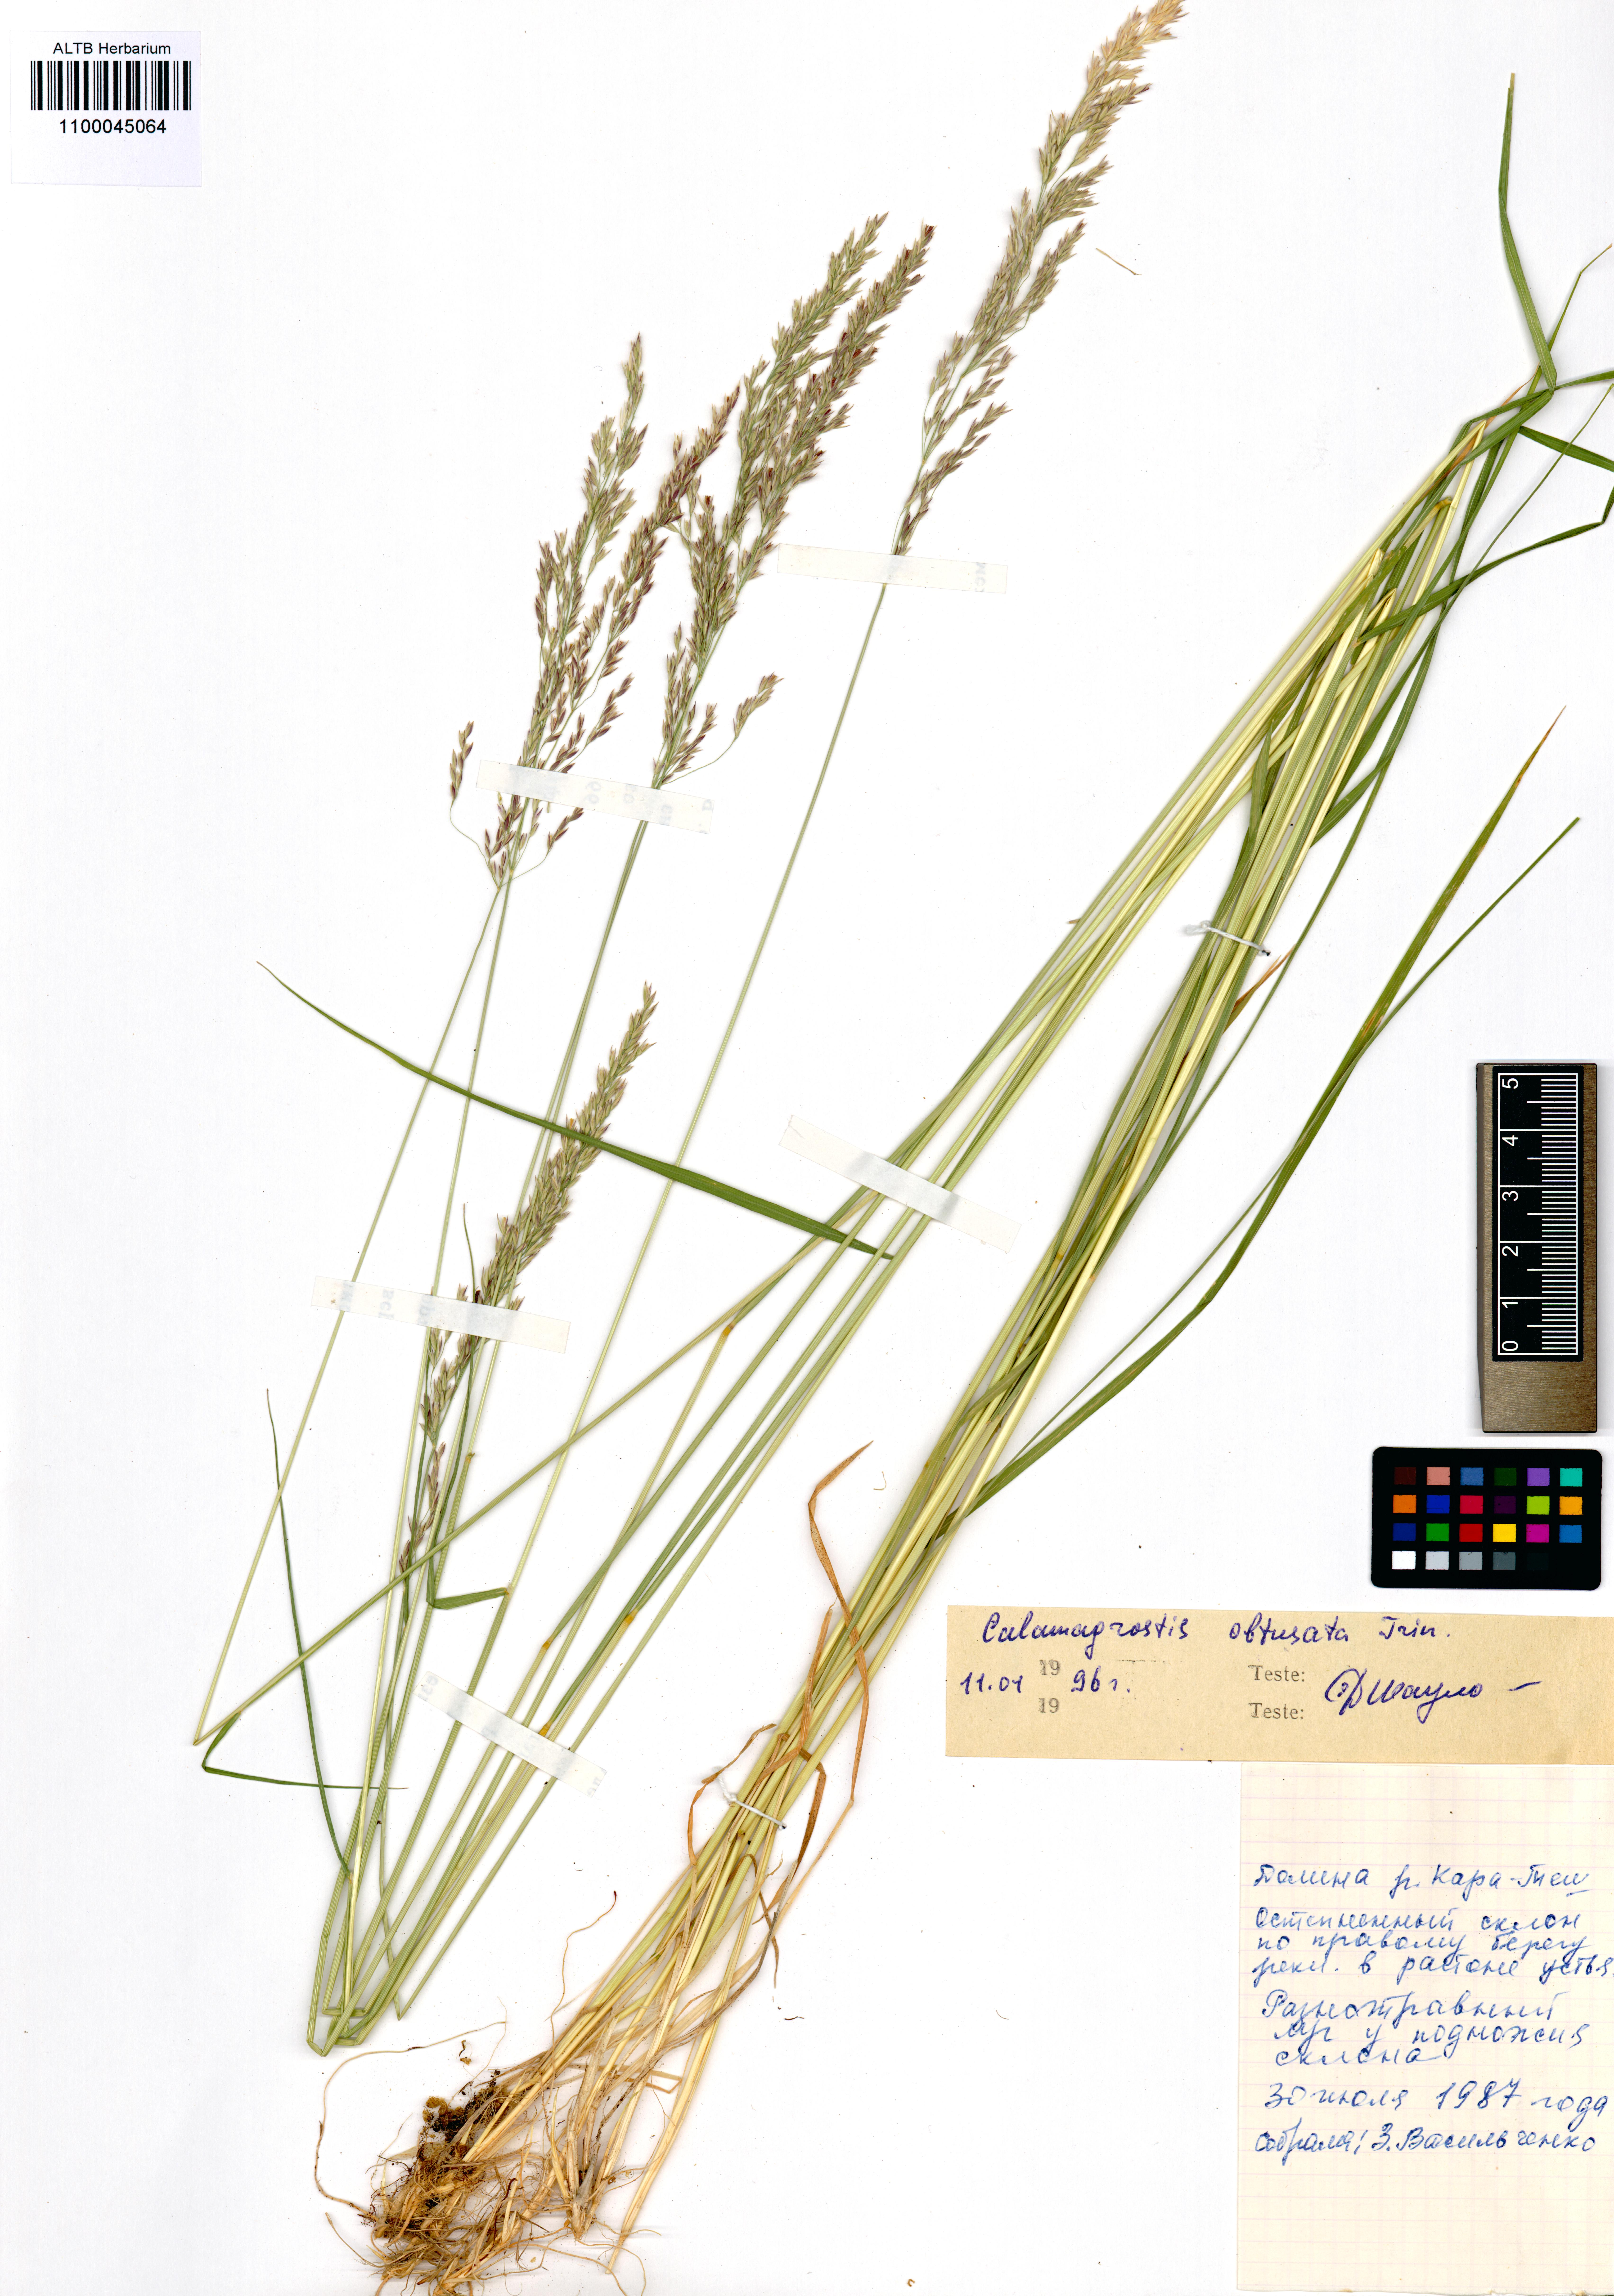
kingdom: Plantae
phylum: Tracheophyta
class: Liliopsida
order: Poales
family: Poaceae
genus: Calamagrostis
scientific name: Calamagrostis obtusata
